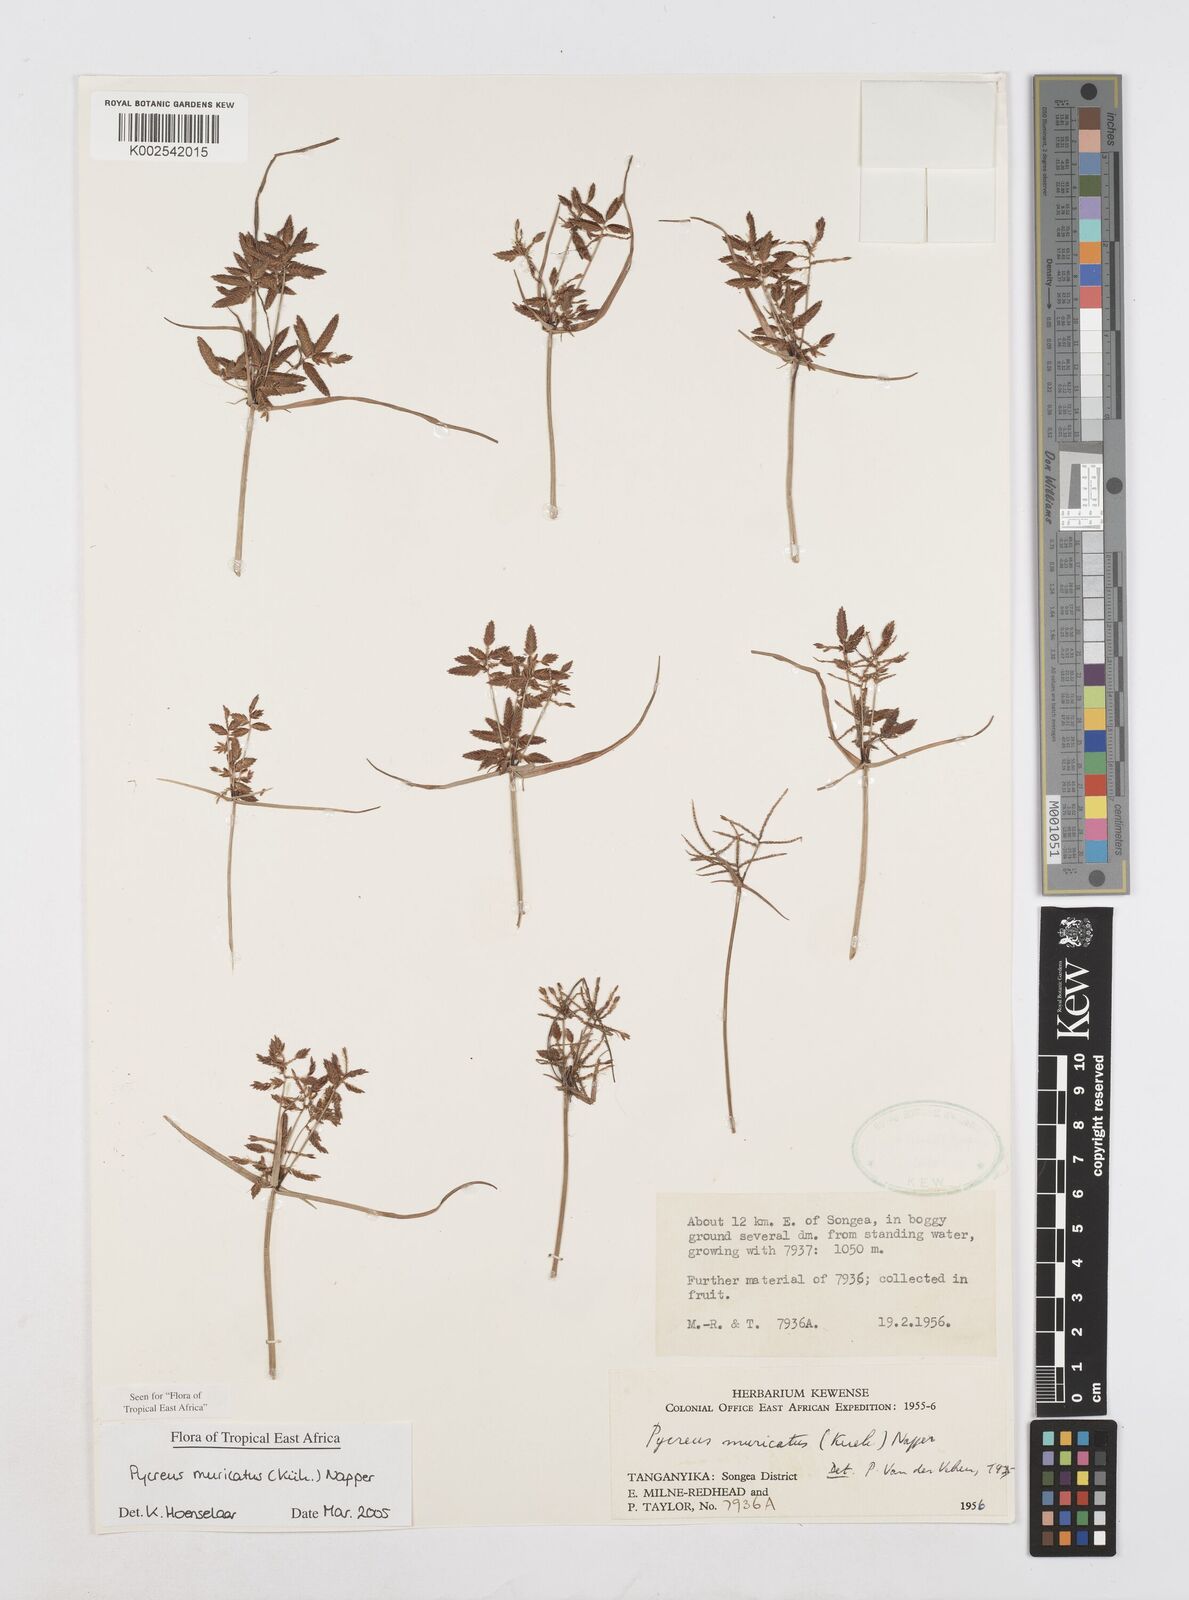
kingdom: Plantae
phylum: Tracheophyta
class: Liliopsida
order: Poales
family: Cyperaceae
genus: Cyperus
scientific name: Cyperus nigricans
